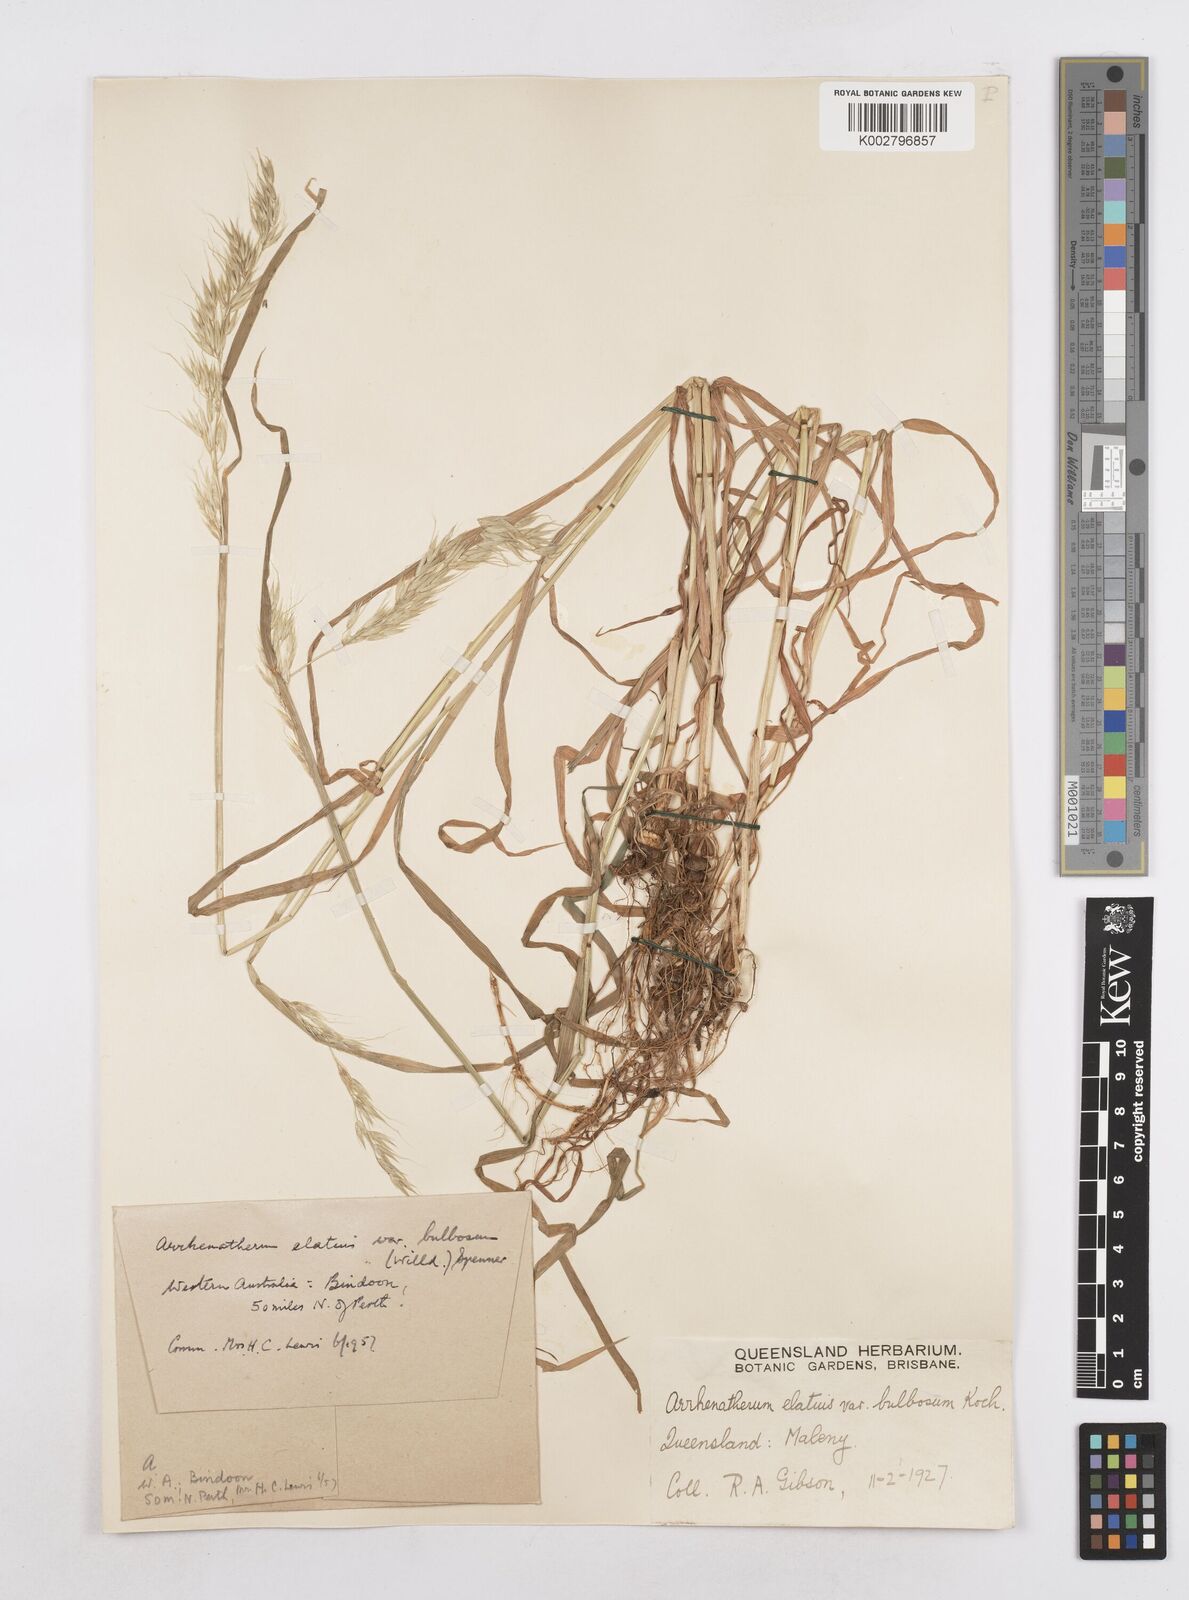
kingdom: Plantae
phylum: Tracheophyta
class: Liliopsida
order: Poales
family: Poaceae
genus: Arrhenatherum
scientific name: Arrhenatherum elatius
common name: Tall oatgrass
